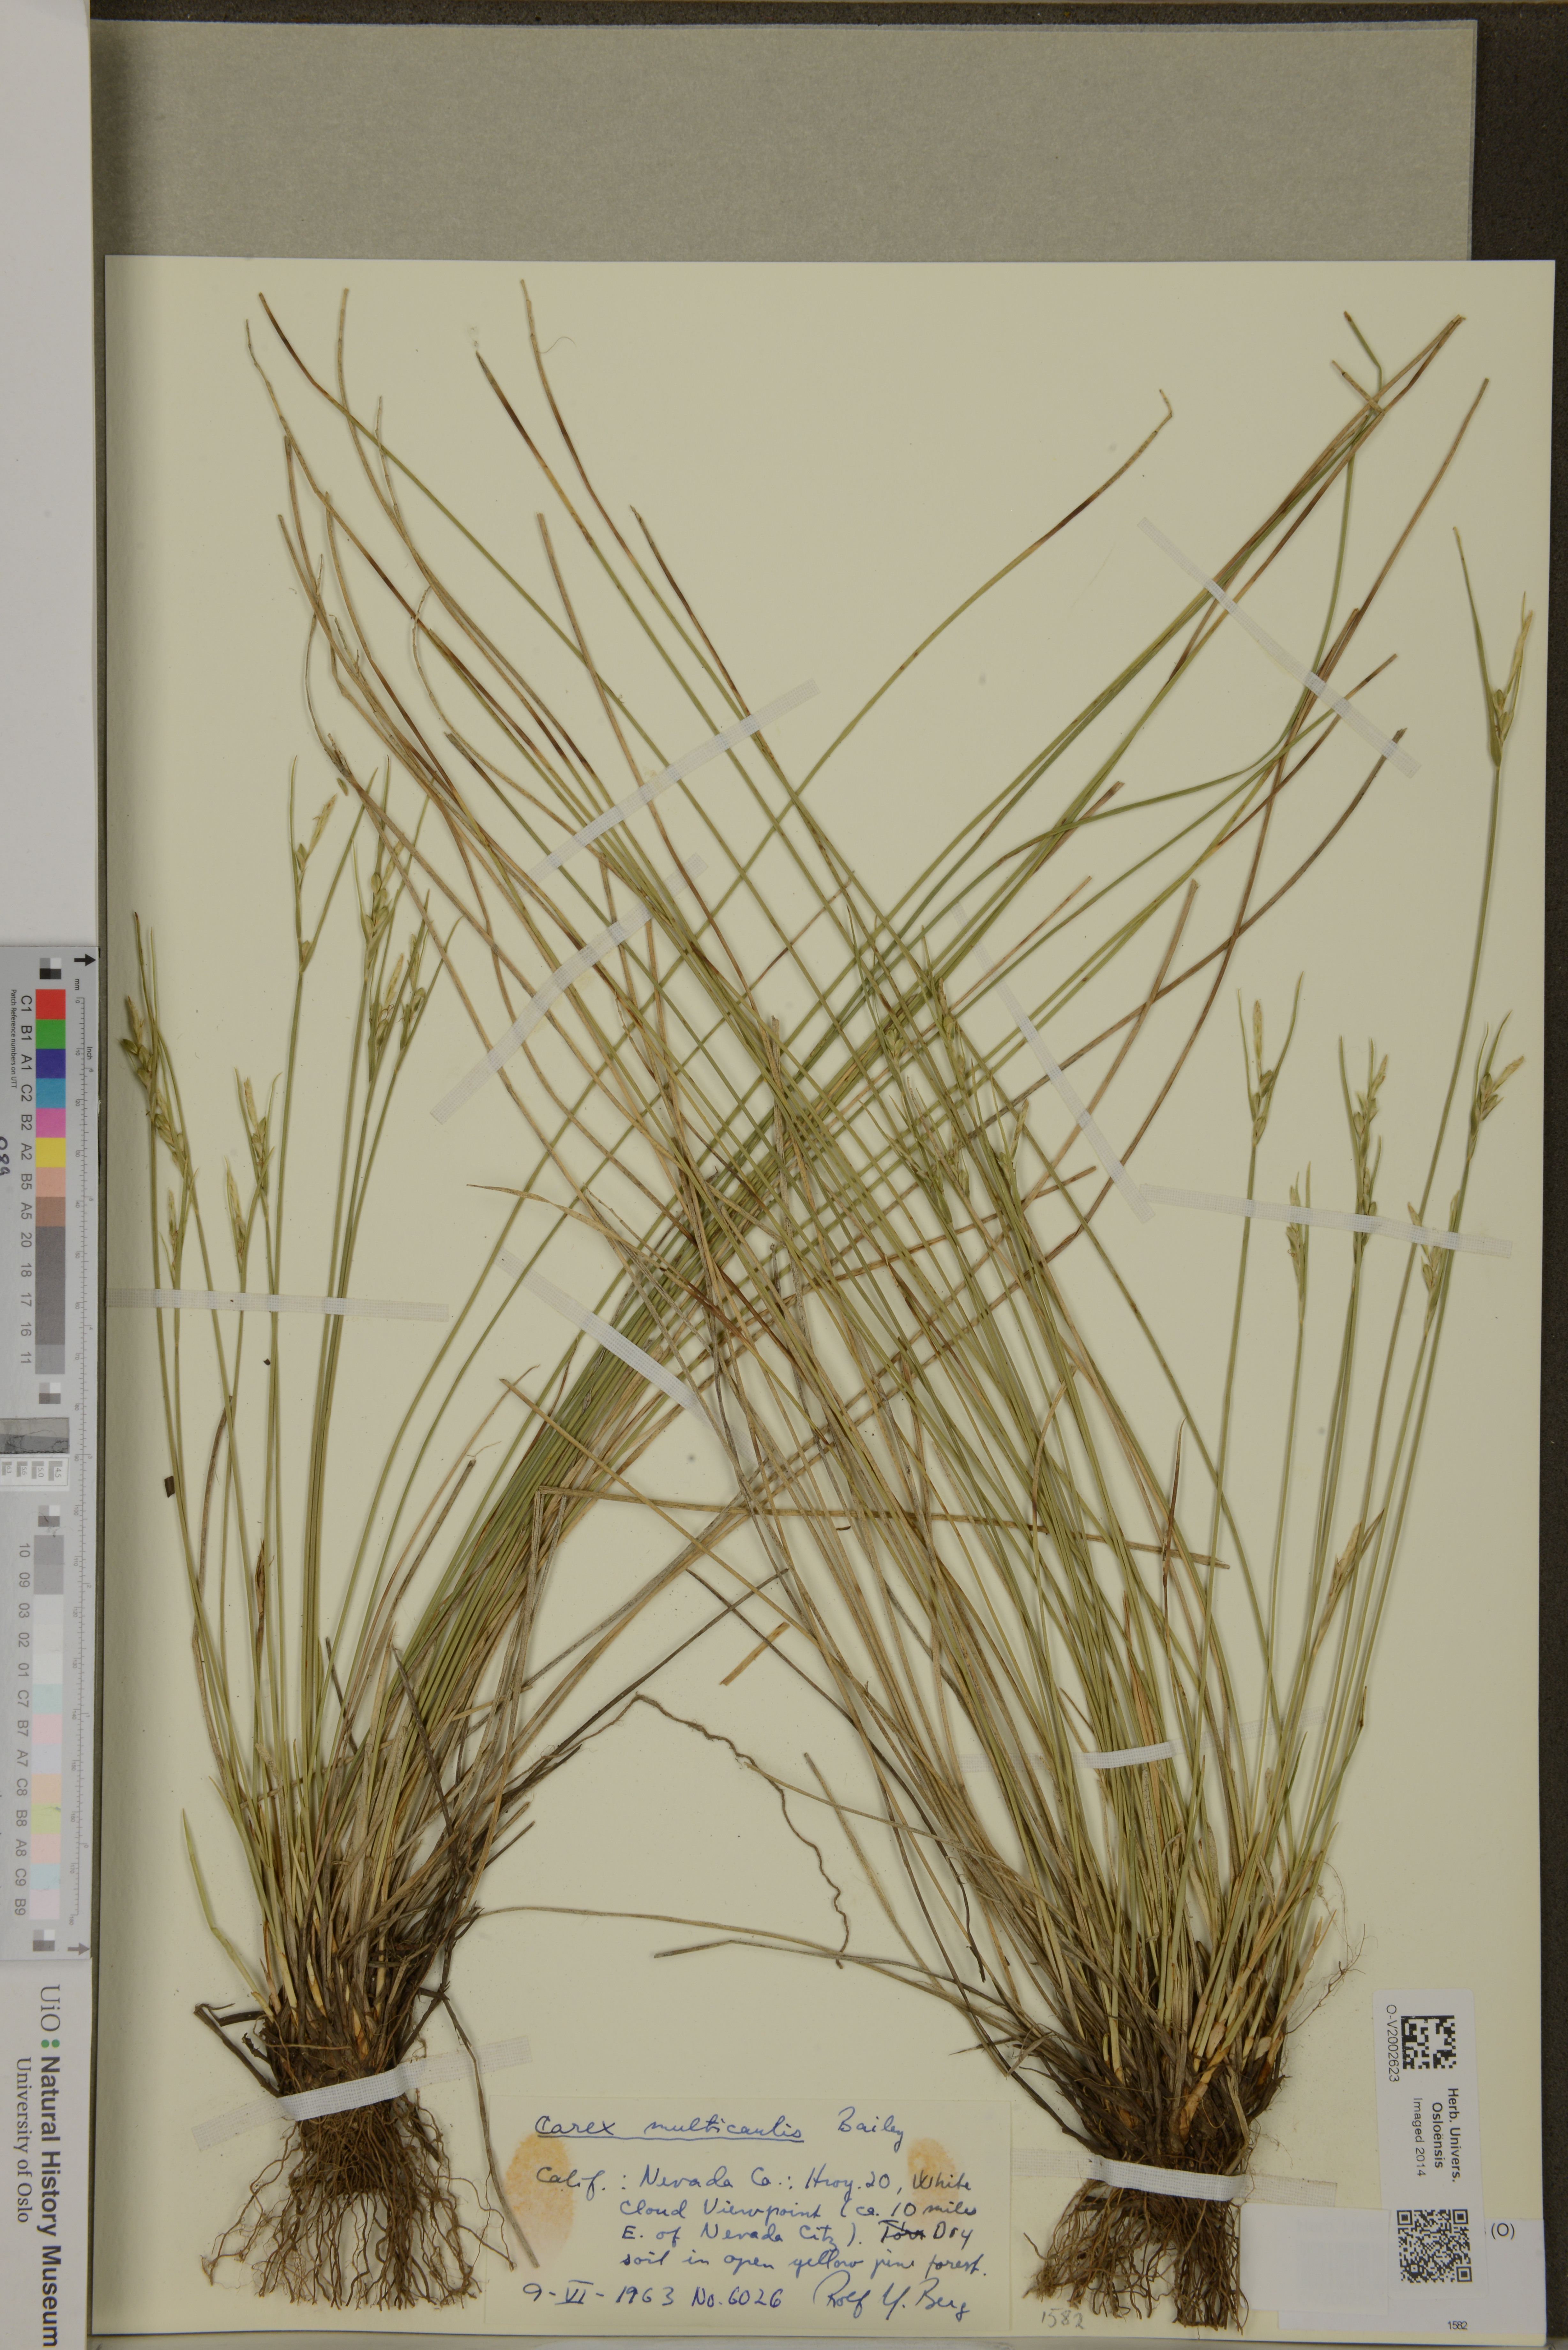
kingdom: Plantae
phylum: Tracheophyta
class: Liliopsida
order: Poales
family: Cyperaceae
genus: Carex
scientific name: Carex multicaulis
